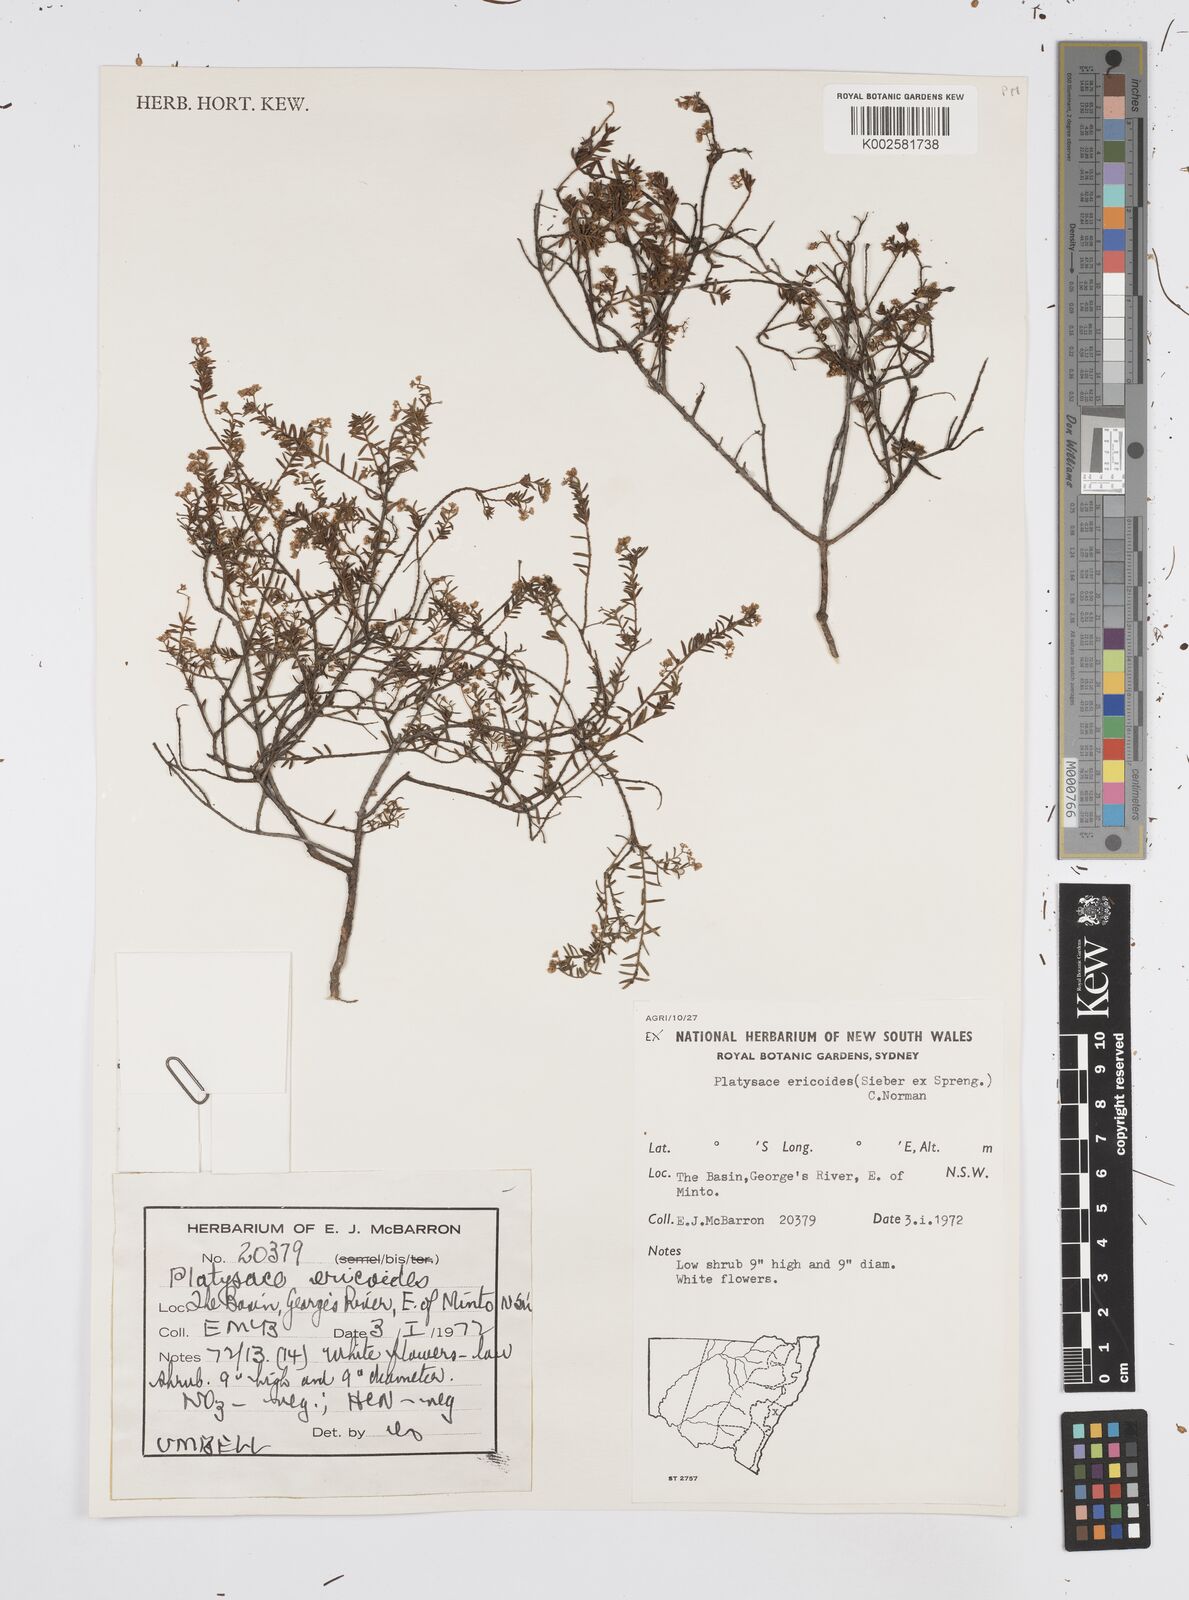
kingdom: Plantae
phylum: Tracheophyta
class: Magnoliopsida
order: Apiales
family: Apiaceae
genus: Platysace
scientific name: Platysace ericoides
